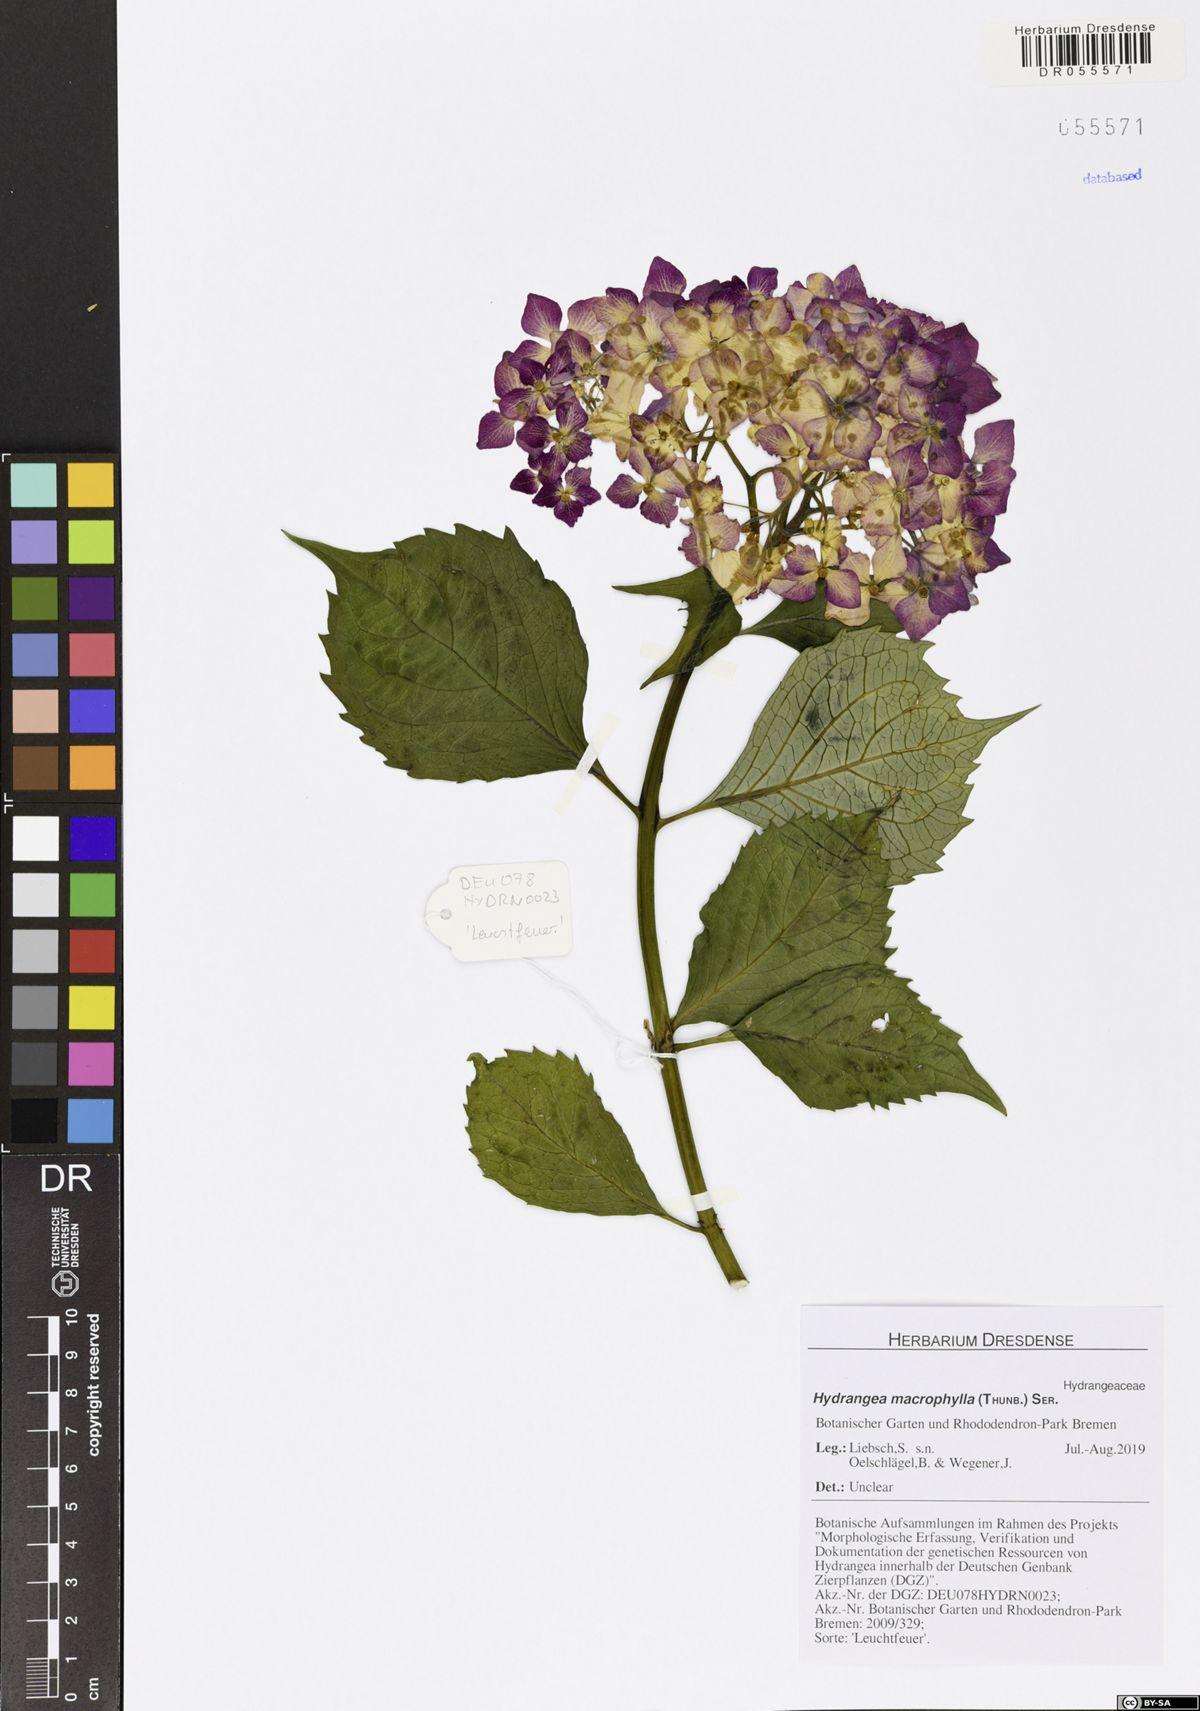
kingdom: Plantae
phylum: Tracheophyta
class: Magnoliopsida
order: Cornales
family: Hydrangeaceae
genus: Hydrangea
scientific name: Hydrangea macrophylla
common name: Hydrangea
